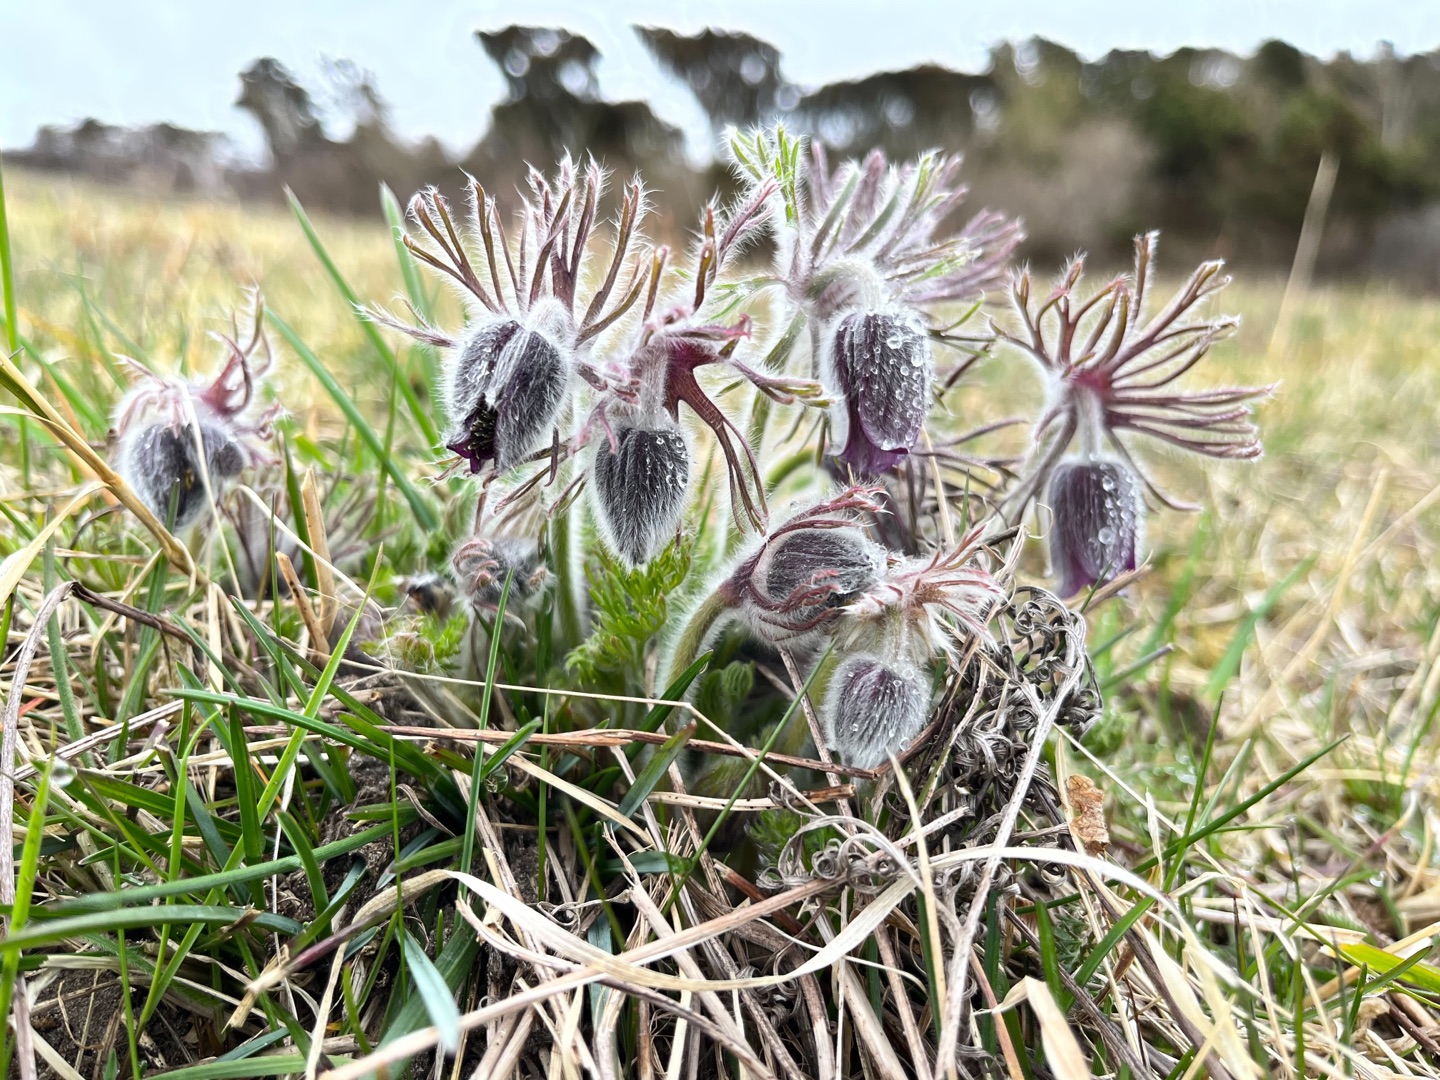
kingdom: Plantae
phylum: Tracheophyta
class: Magnoliopsida
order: Ranunculales
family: Ranunculaceae
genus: Pulsatilla
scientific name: Pulsatilla pratensis
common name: Nikkende kobjælde
